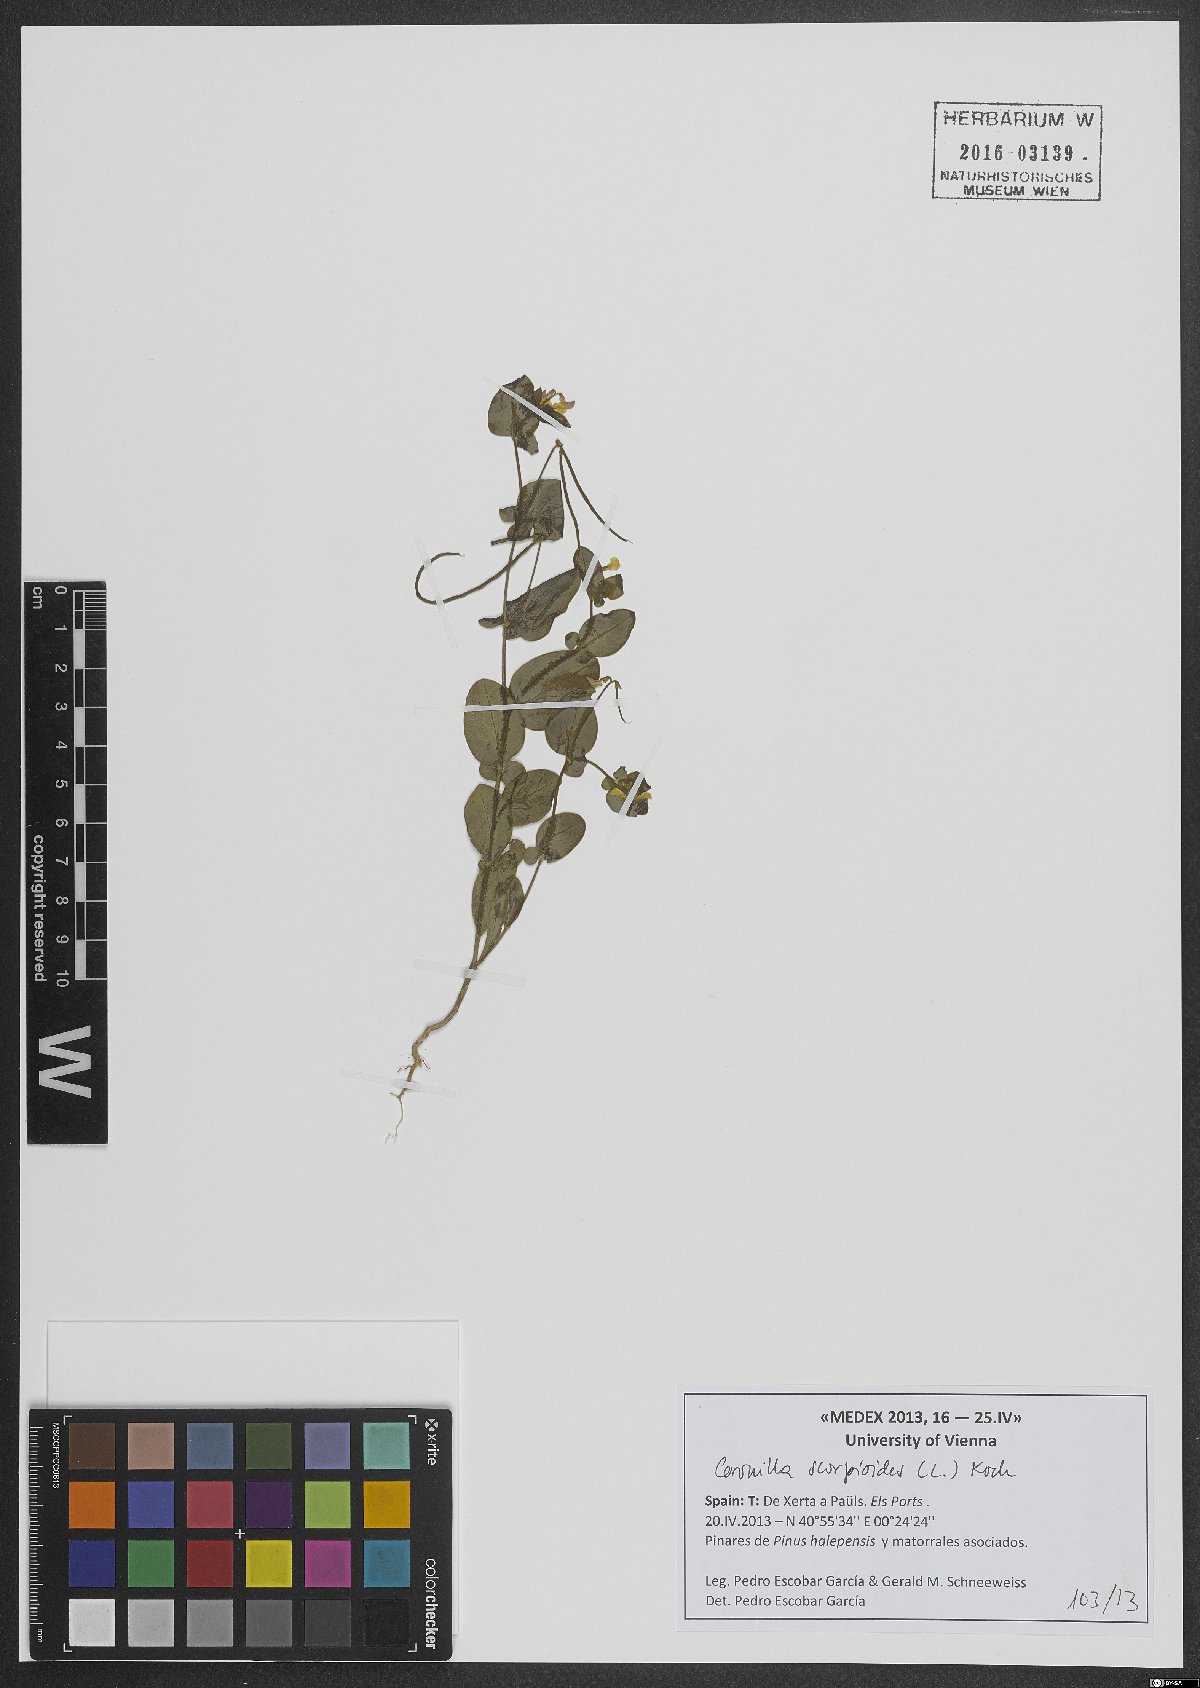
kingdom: Plantae
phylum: Tracheophyta
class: Magnoliopsida
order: Fabales
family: Fabaceae
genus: Coronilla
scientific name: Coronilla scorpioides
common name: Annual scorpion-vetch
